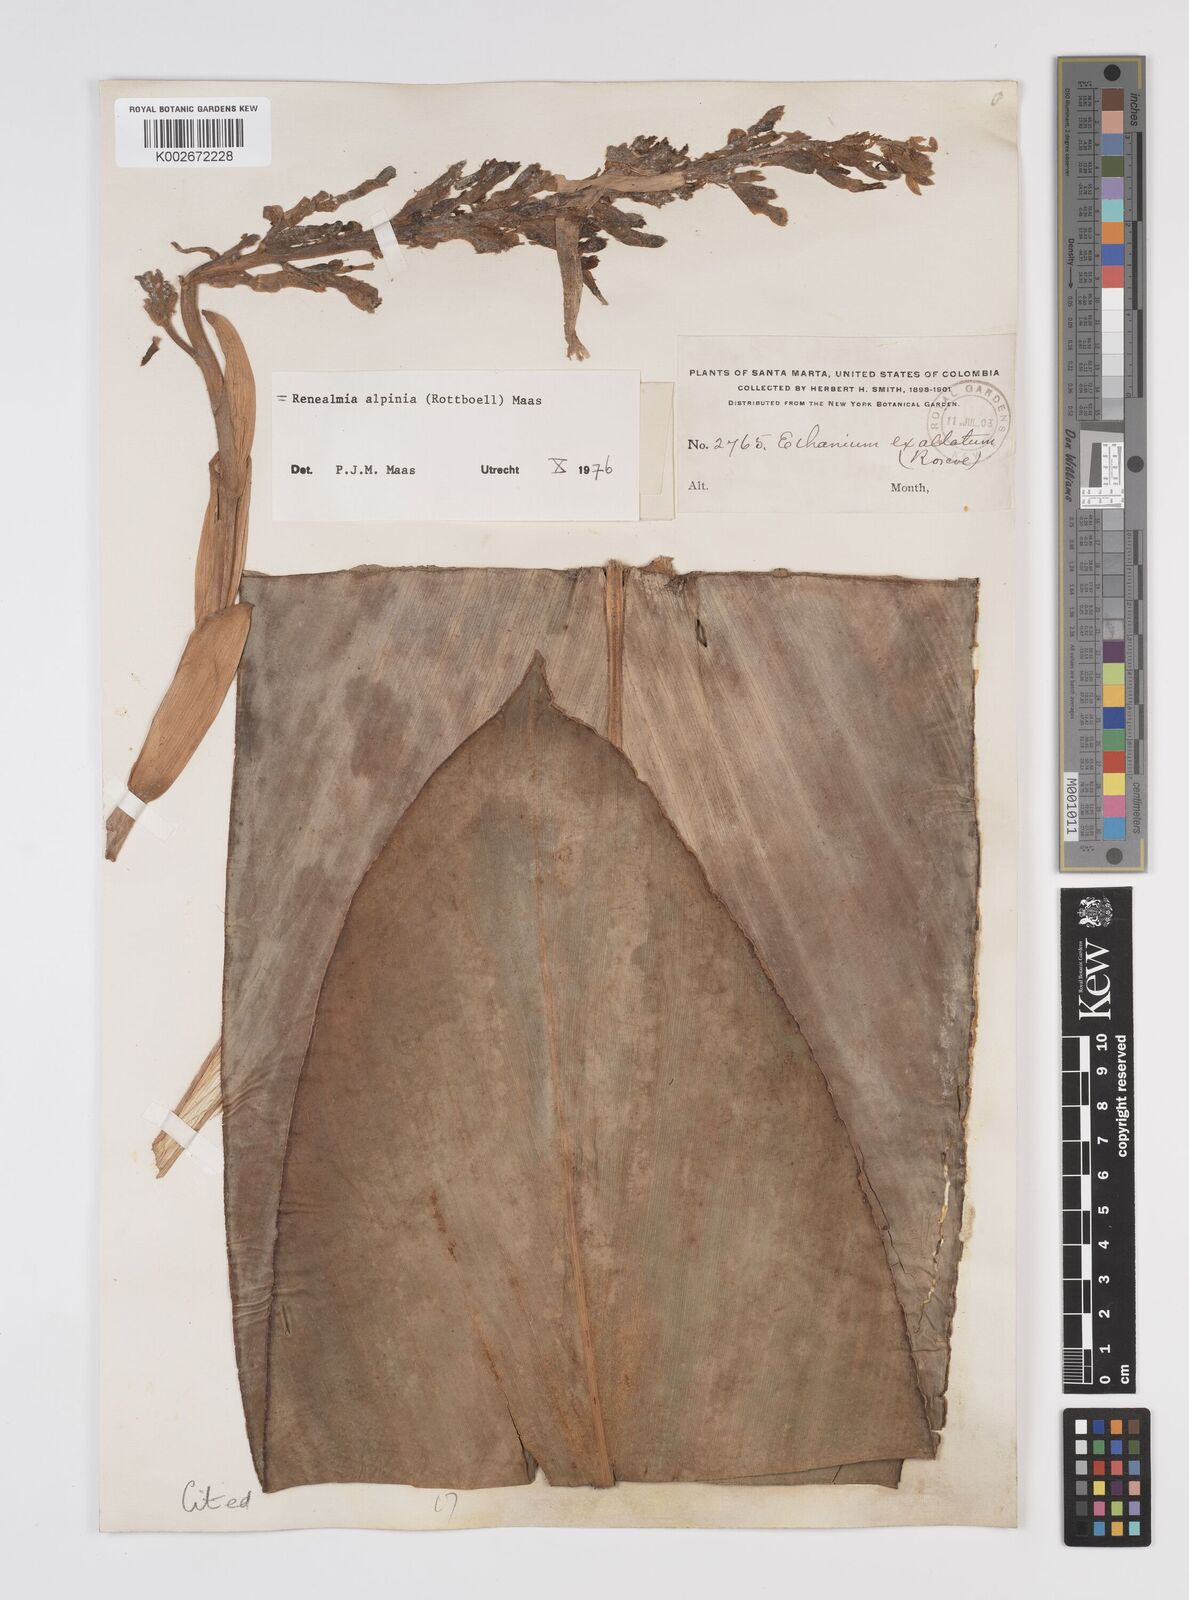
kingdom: Plantae
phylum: Tracheophyta
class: Liliopsida
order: Zingiberales
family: Zingiberaceae
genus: Renealmia
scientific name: Renealmia alpinia
